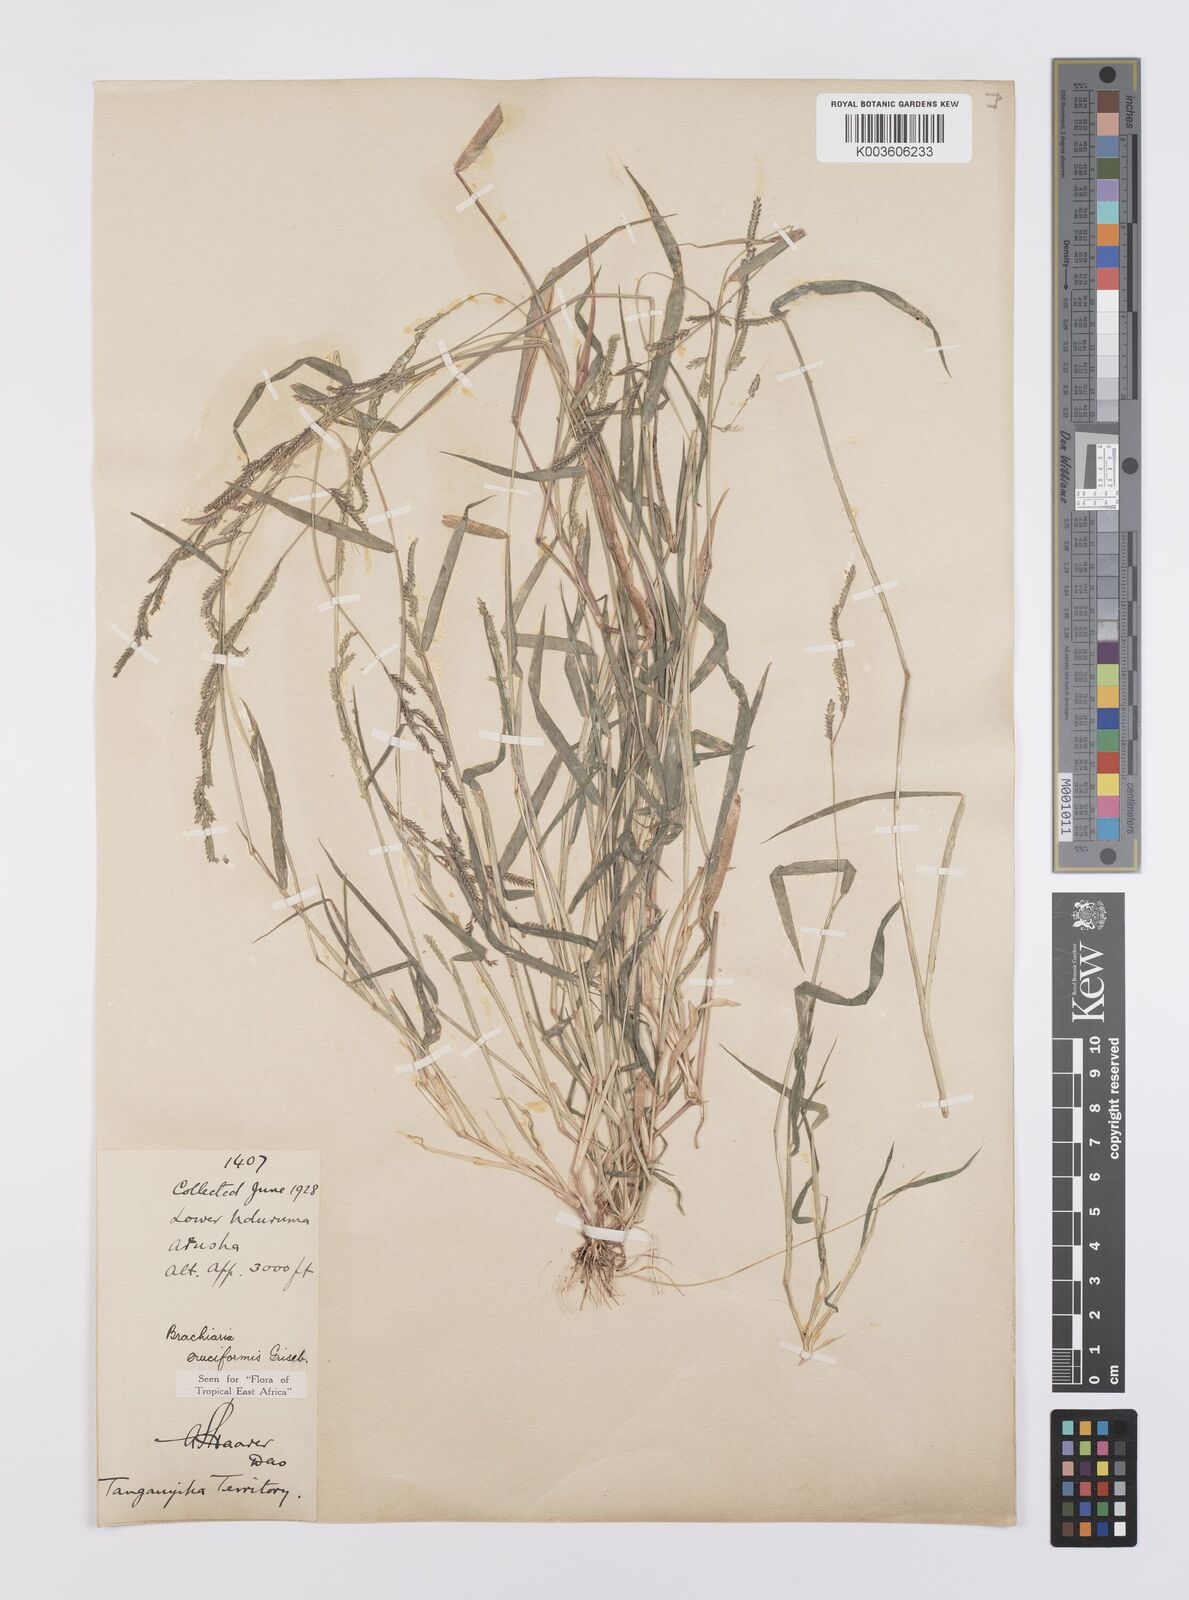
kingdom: Plantae
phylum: Tracheophyta
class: Liliopsida
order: Poales
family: Poaceae
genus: Moorochloa
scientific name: Moorochloa eruciformis
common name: Sweet signalgrass
